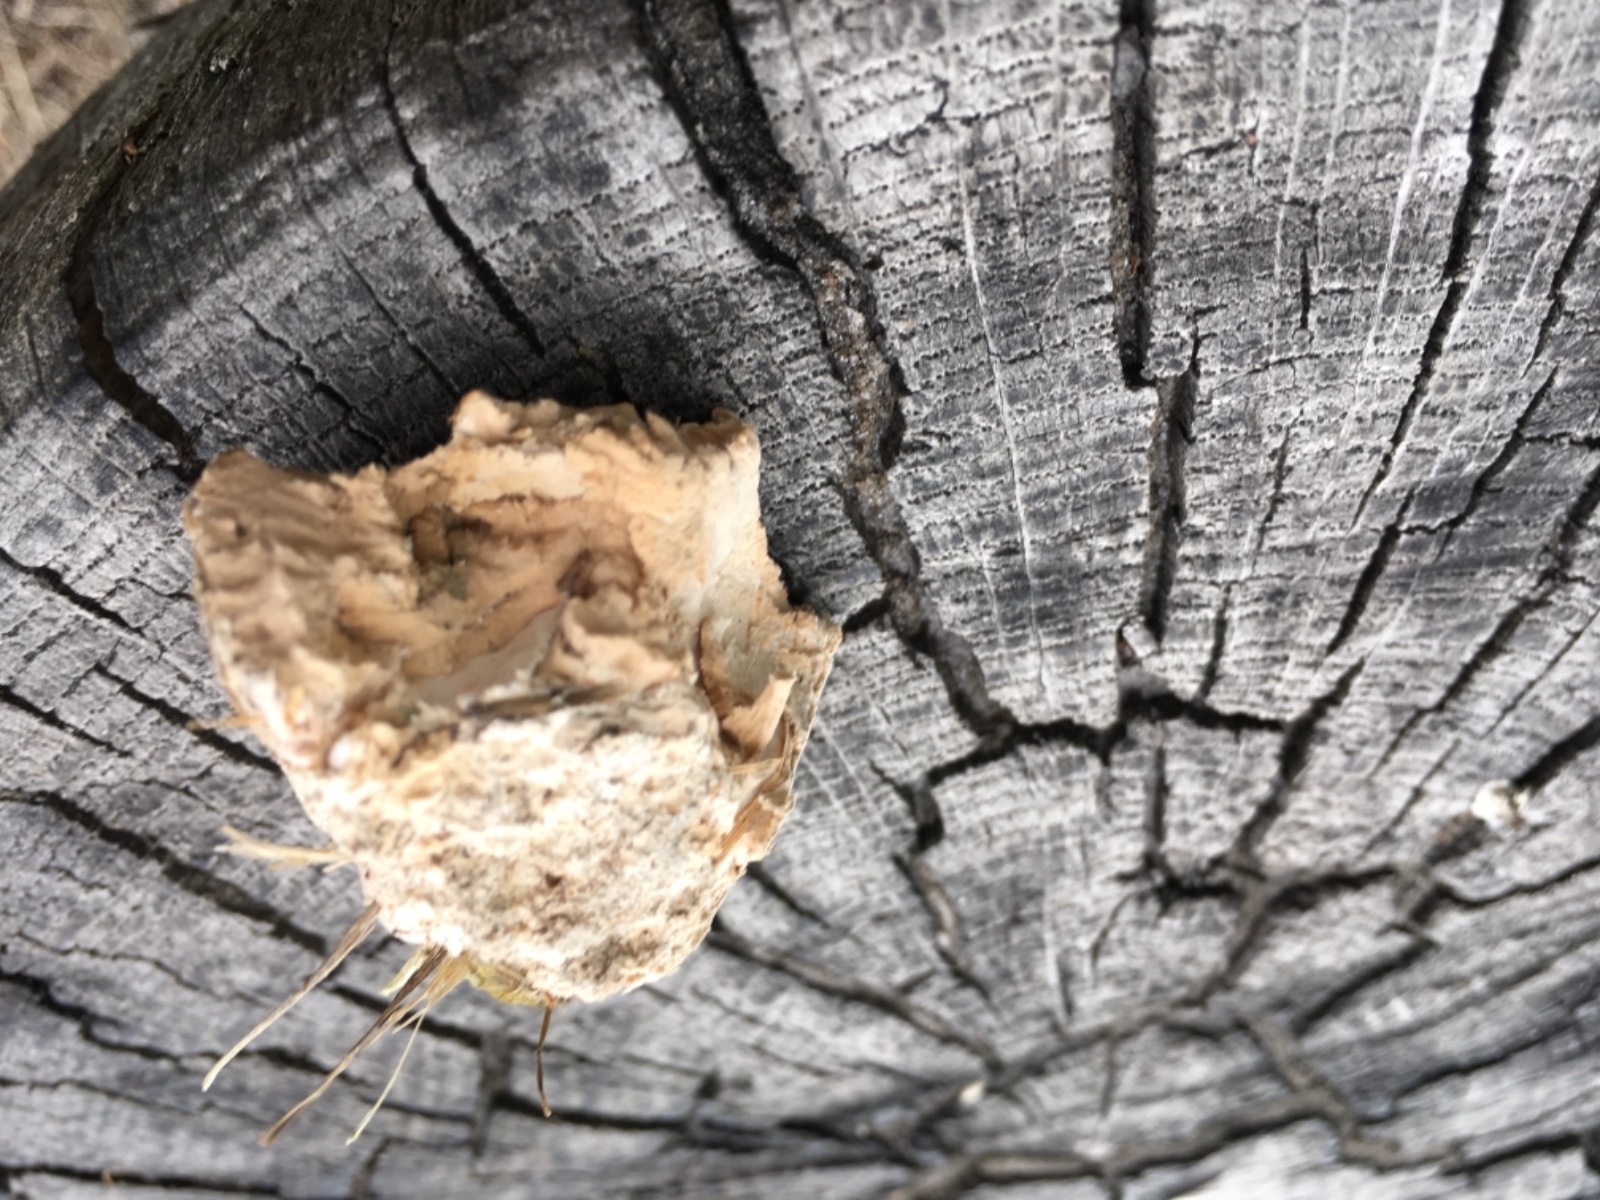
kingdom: Fungi
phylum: Basidiomycota
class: Agaricomycetes
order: Polyporales
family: Fomitopsidaceae
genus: Daedalea
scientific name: Daedalea quercina
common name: ege-labyrintsvamp
